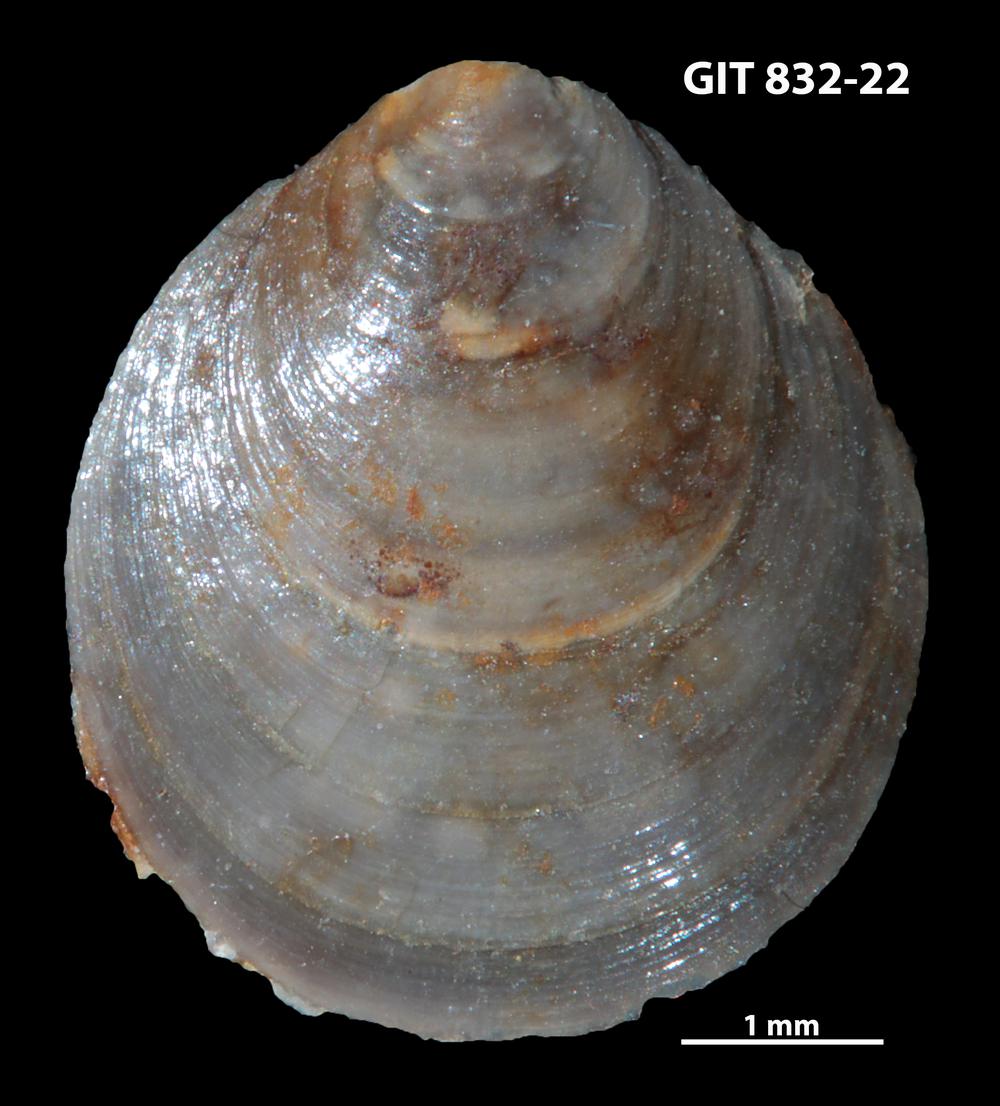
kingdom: Animalia
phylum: Brachiopoda
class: Lingulata
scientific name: Lingulata
